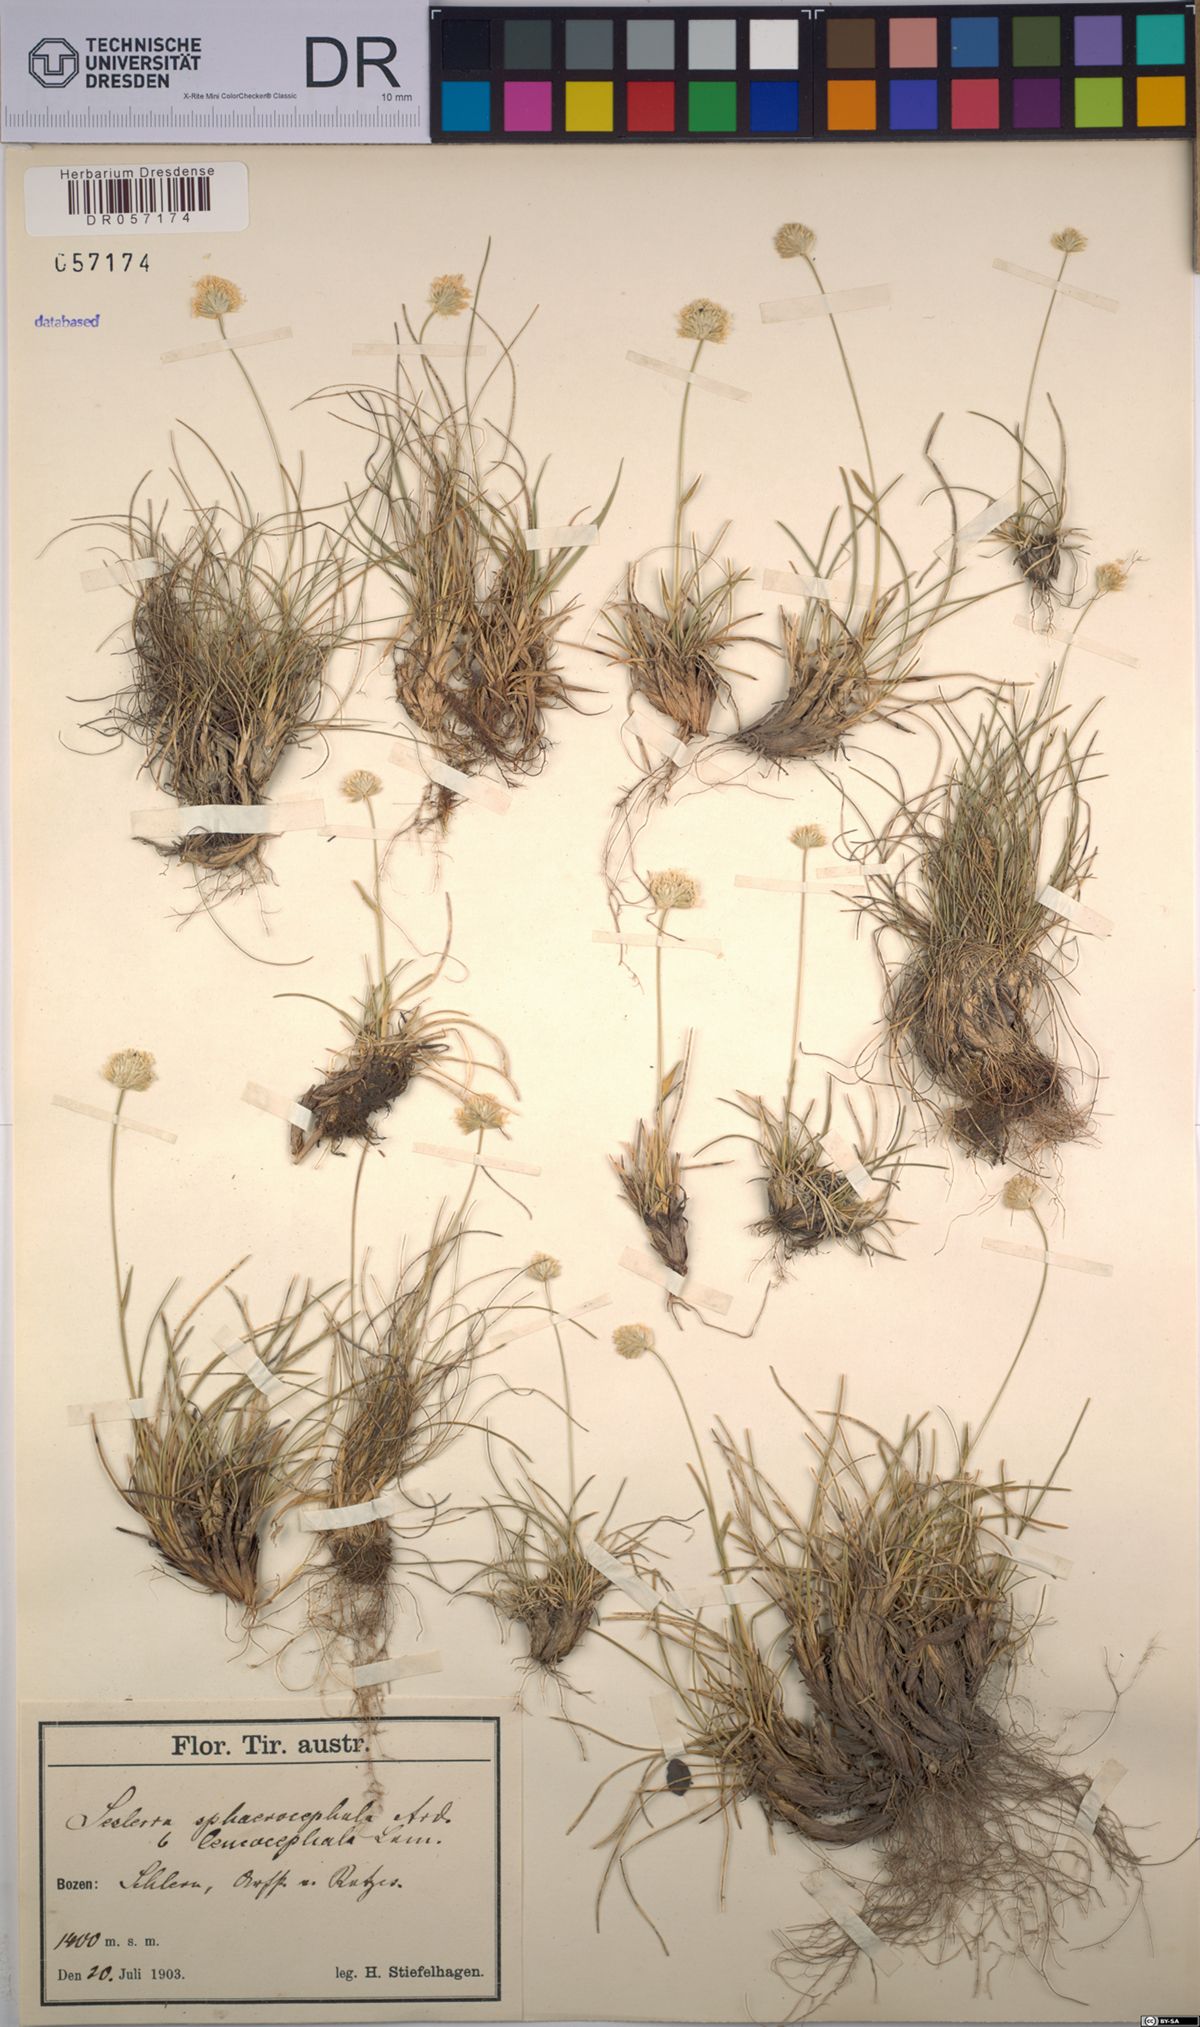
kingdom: Plantae
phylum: Tracheophyta
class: Liliopsida
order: Poales
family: Poaceae
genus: Sesleriella
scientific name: Sesleriella sphaerocephala
